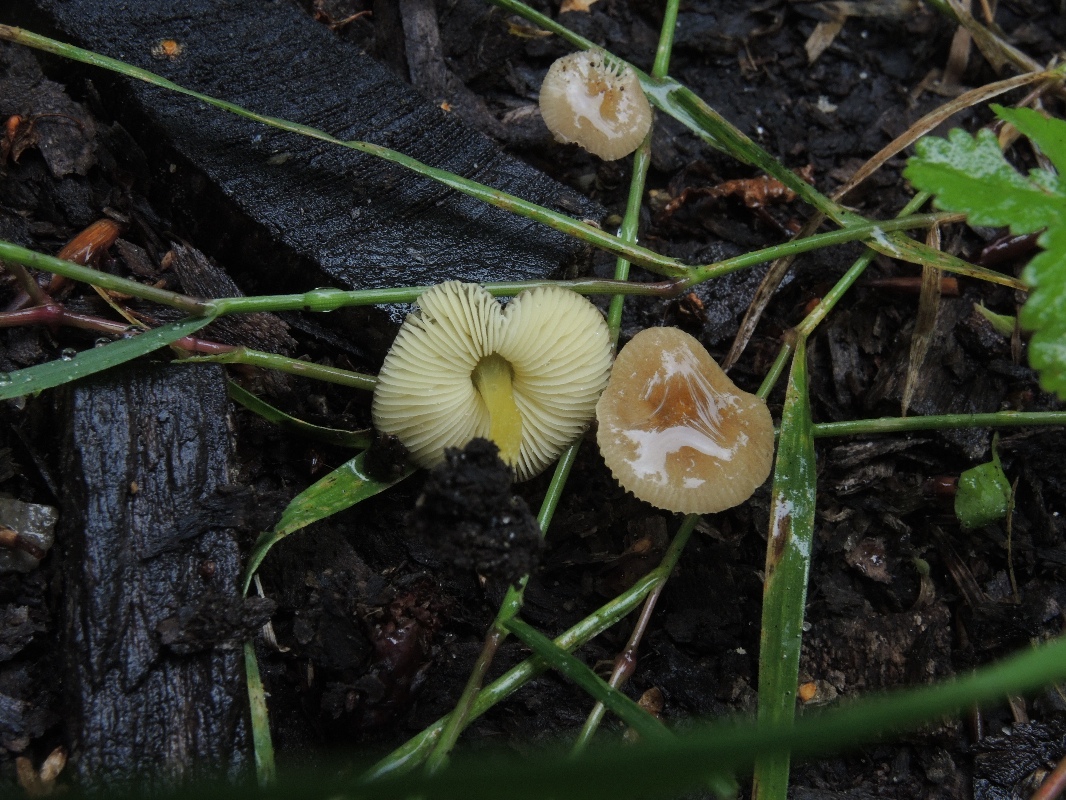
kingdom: Fungi
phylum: Basidiomycota
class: Agaricomycetes
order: Agaricales
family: Pluteaceae
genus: Pluteus
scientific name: Pluteus romellii
